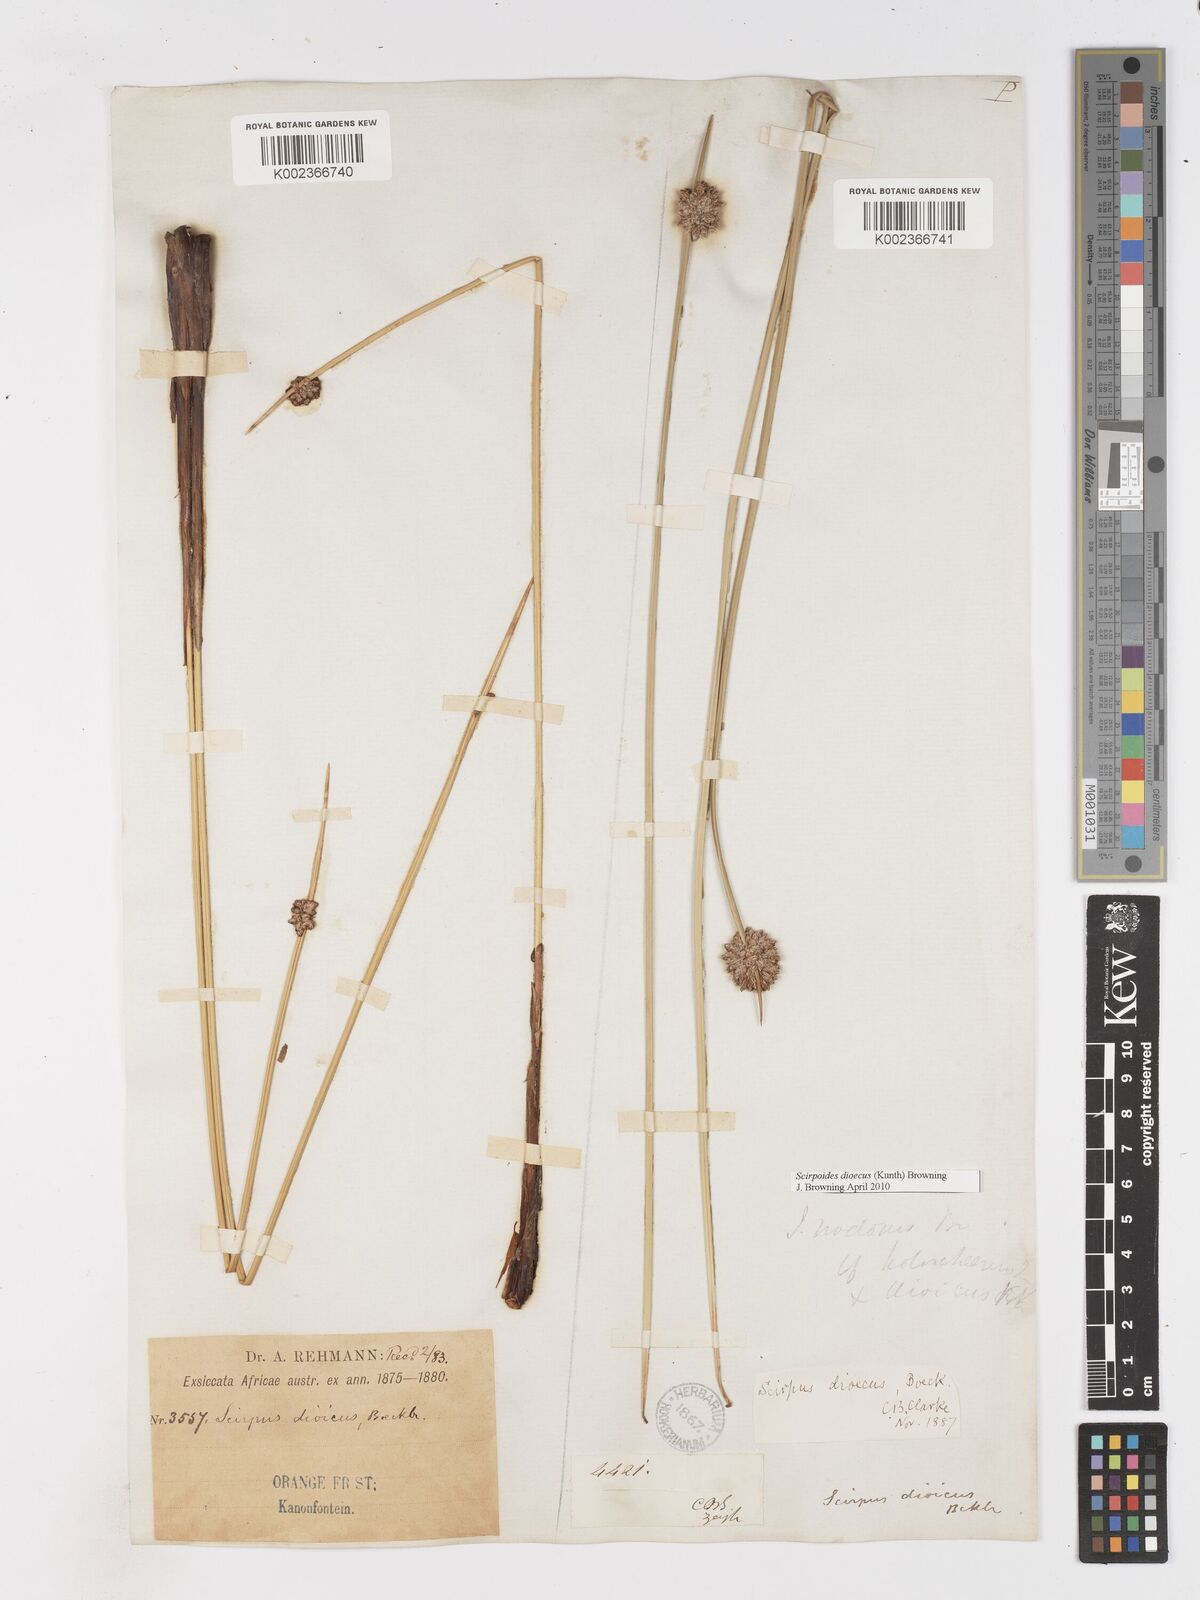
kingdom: Plantae
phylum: Tracheophyta
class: Liliopsida
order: Poales
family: Cyperaceae
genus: Afroscirpoides
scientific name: Afroscirpoides dioeca
